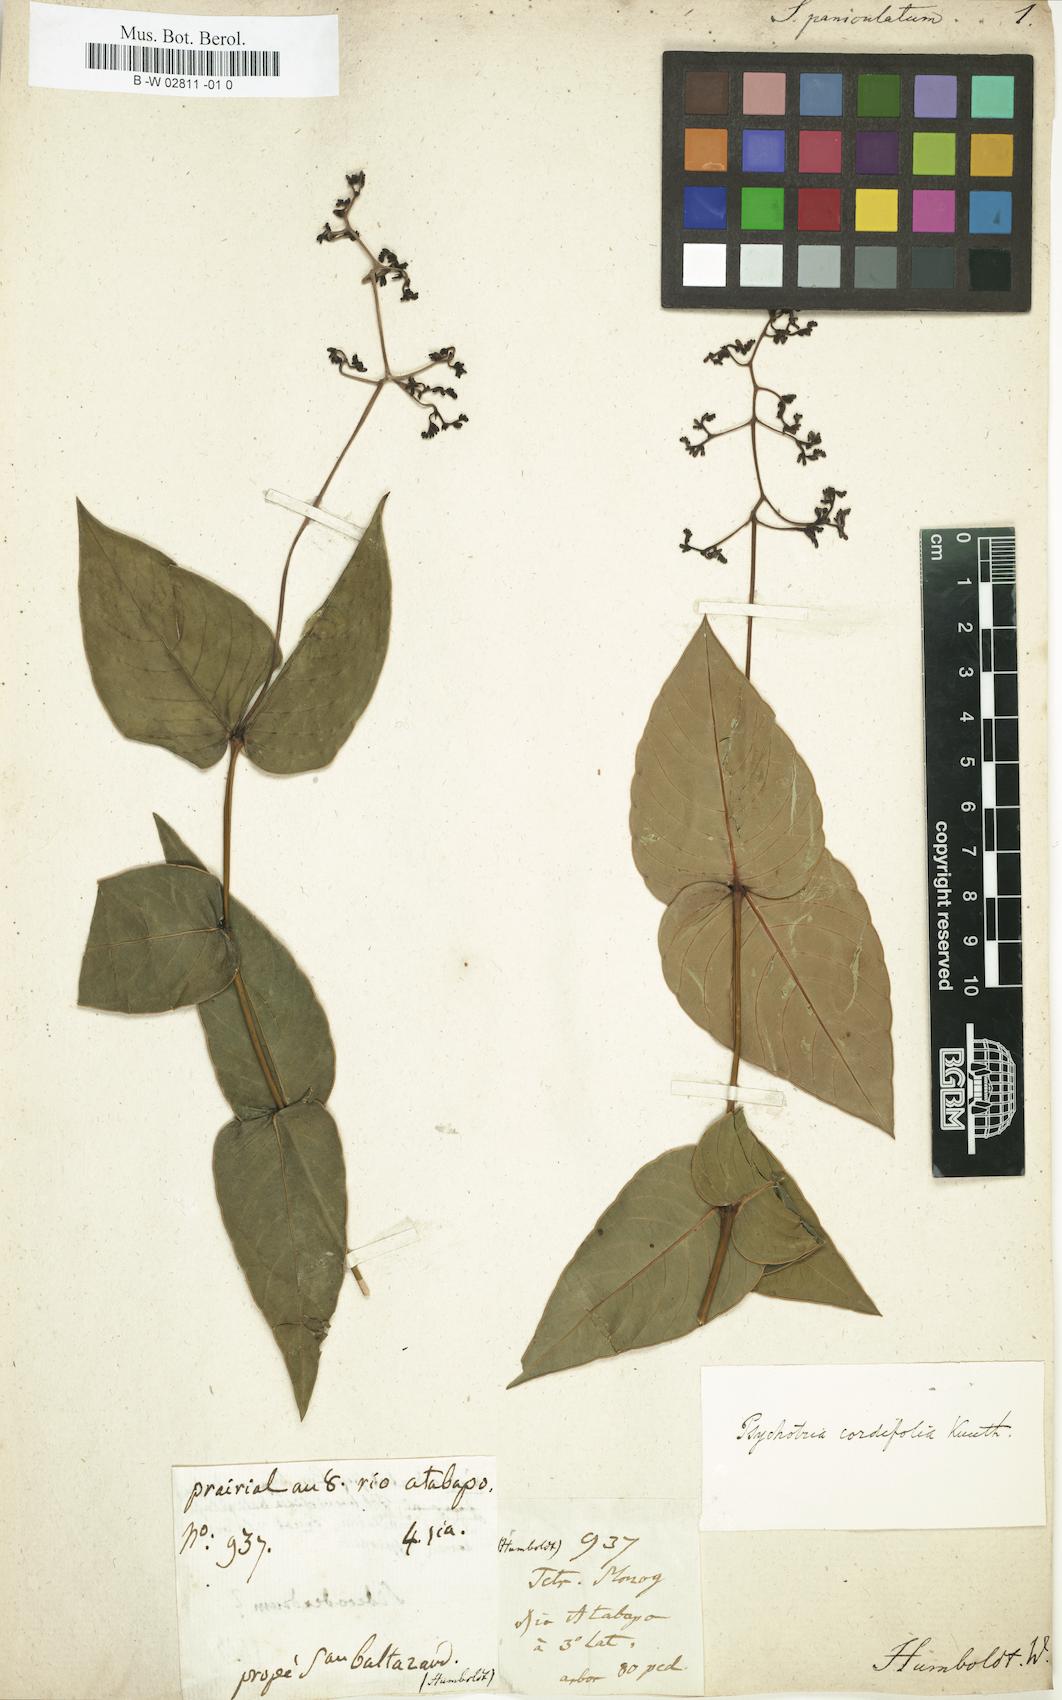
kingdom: Plantae
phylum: Tracheophyta
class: Magnoliopsida
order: Gentianales
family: Rubiaceae
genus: Palicourea
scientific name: Palicourea cardiomorpha
